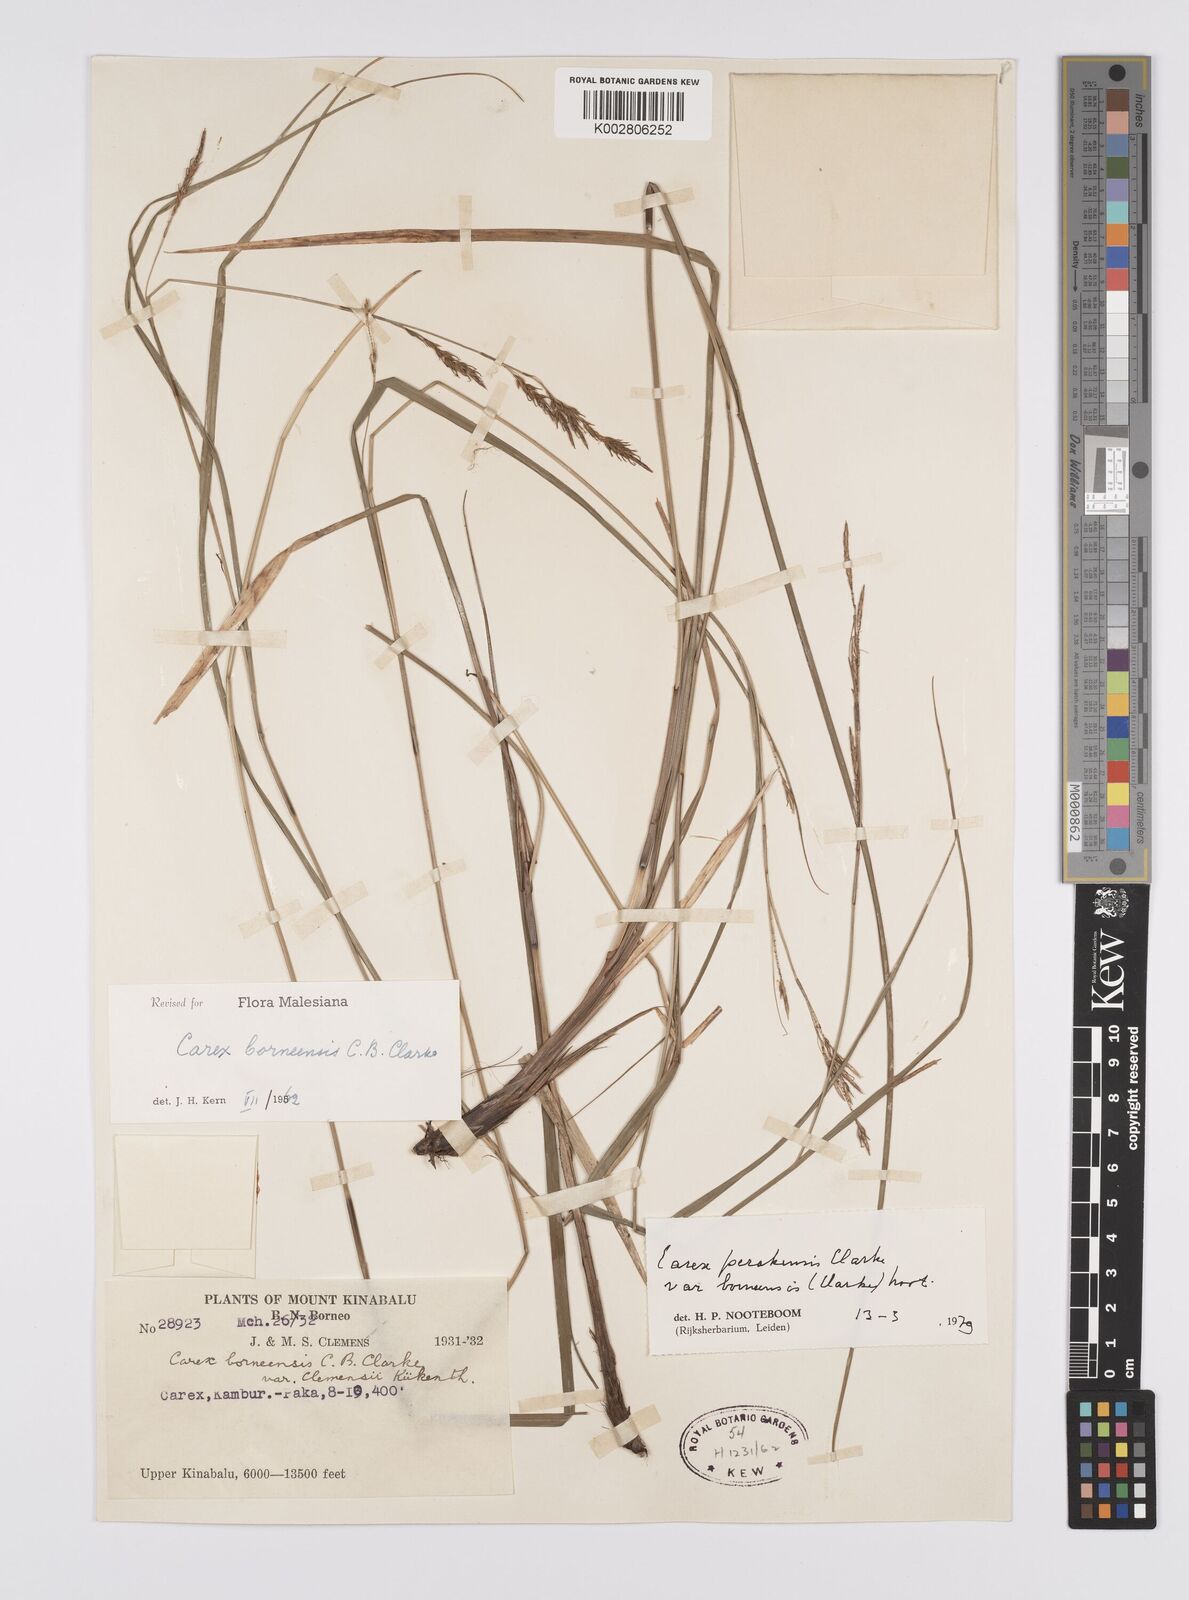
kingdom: Plantae
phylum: Tracheophyta
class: Liliopsida
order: Poales
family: Cyperaceae
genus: Carex
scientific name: Carex perakensis
